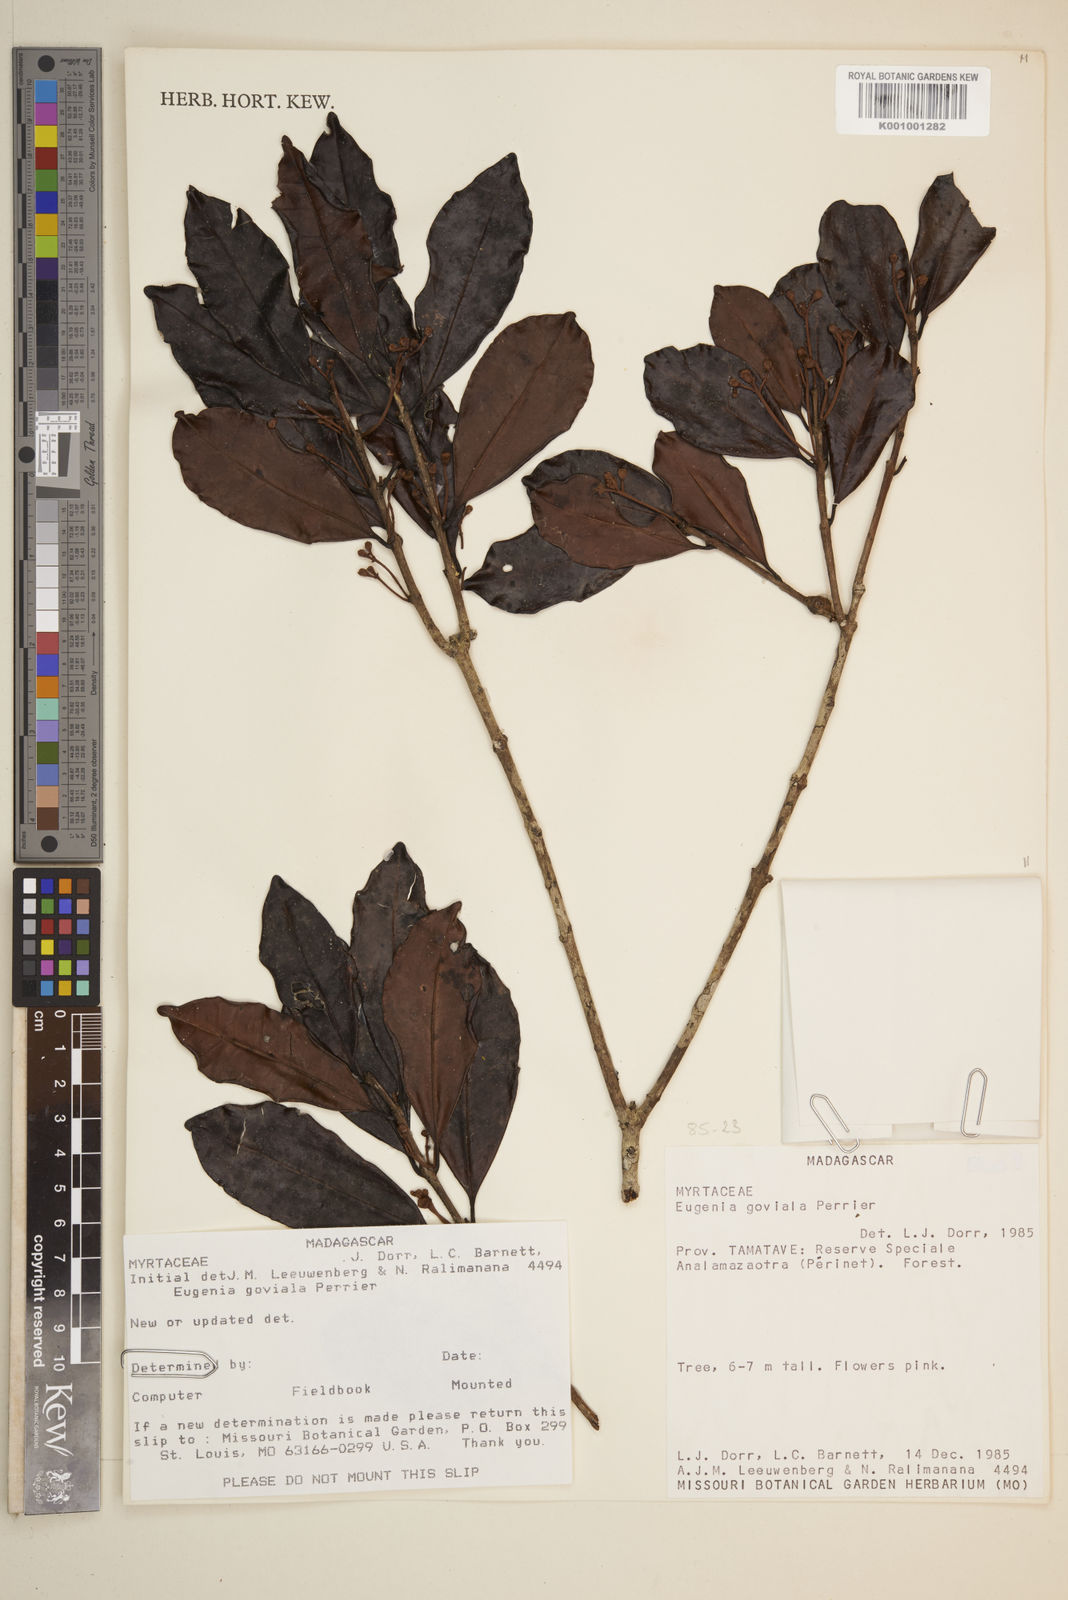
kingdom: Plantae
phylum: Tracheophyta
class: Magnoliopsida
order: Myrtales
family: Myrtaceae
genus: Eugenia
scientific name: Eugenia goviala
